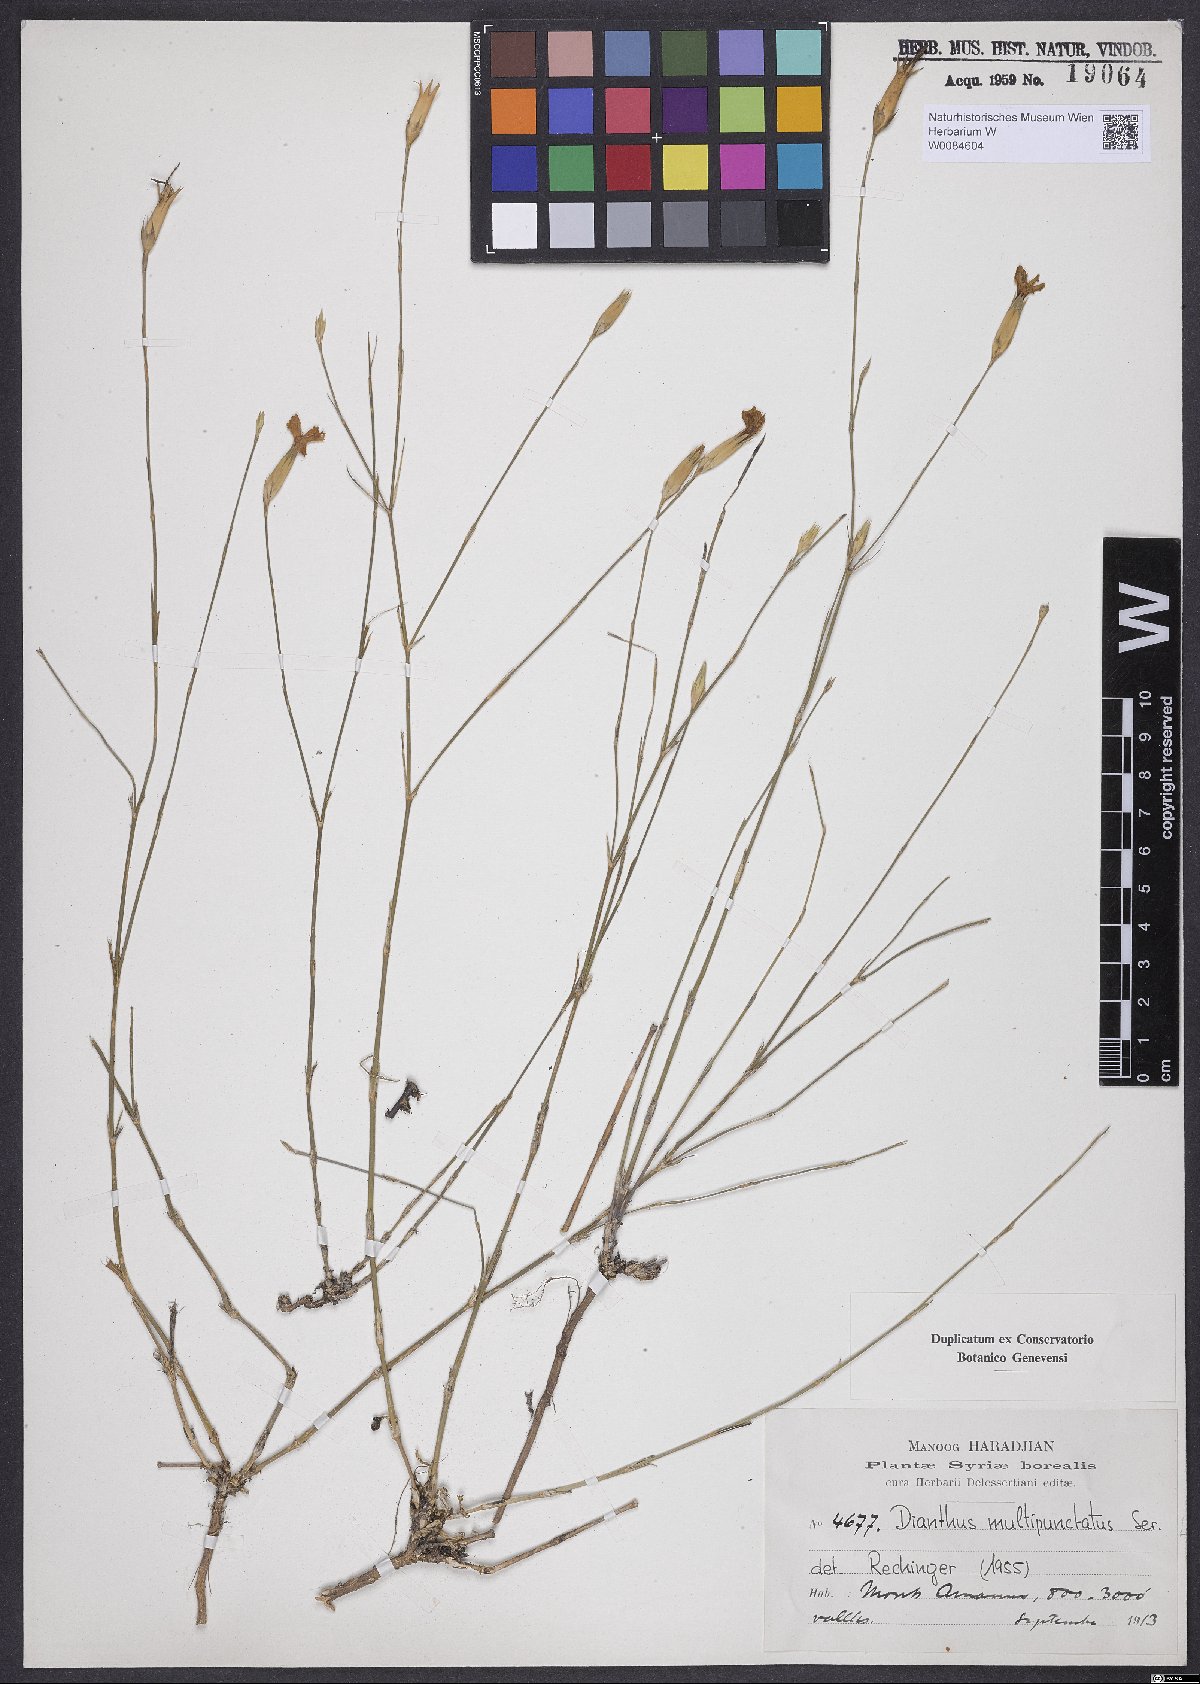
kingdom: Plantae
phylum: Tracheophyta
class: Magnoliopsida
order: Caryophyllales
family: Caryophyllaceae
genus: Dianthus
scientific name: Dianthus strictus
